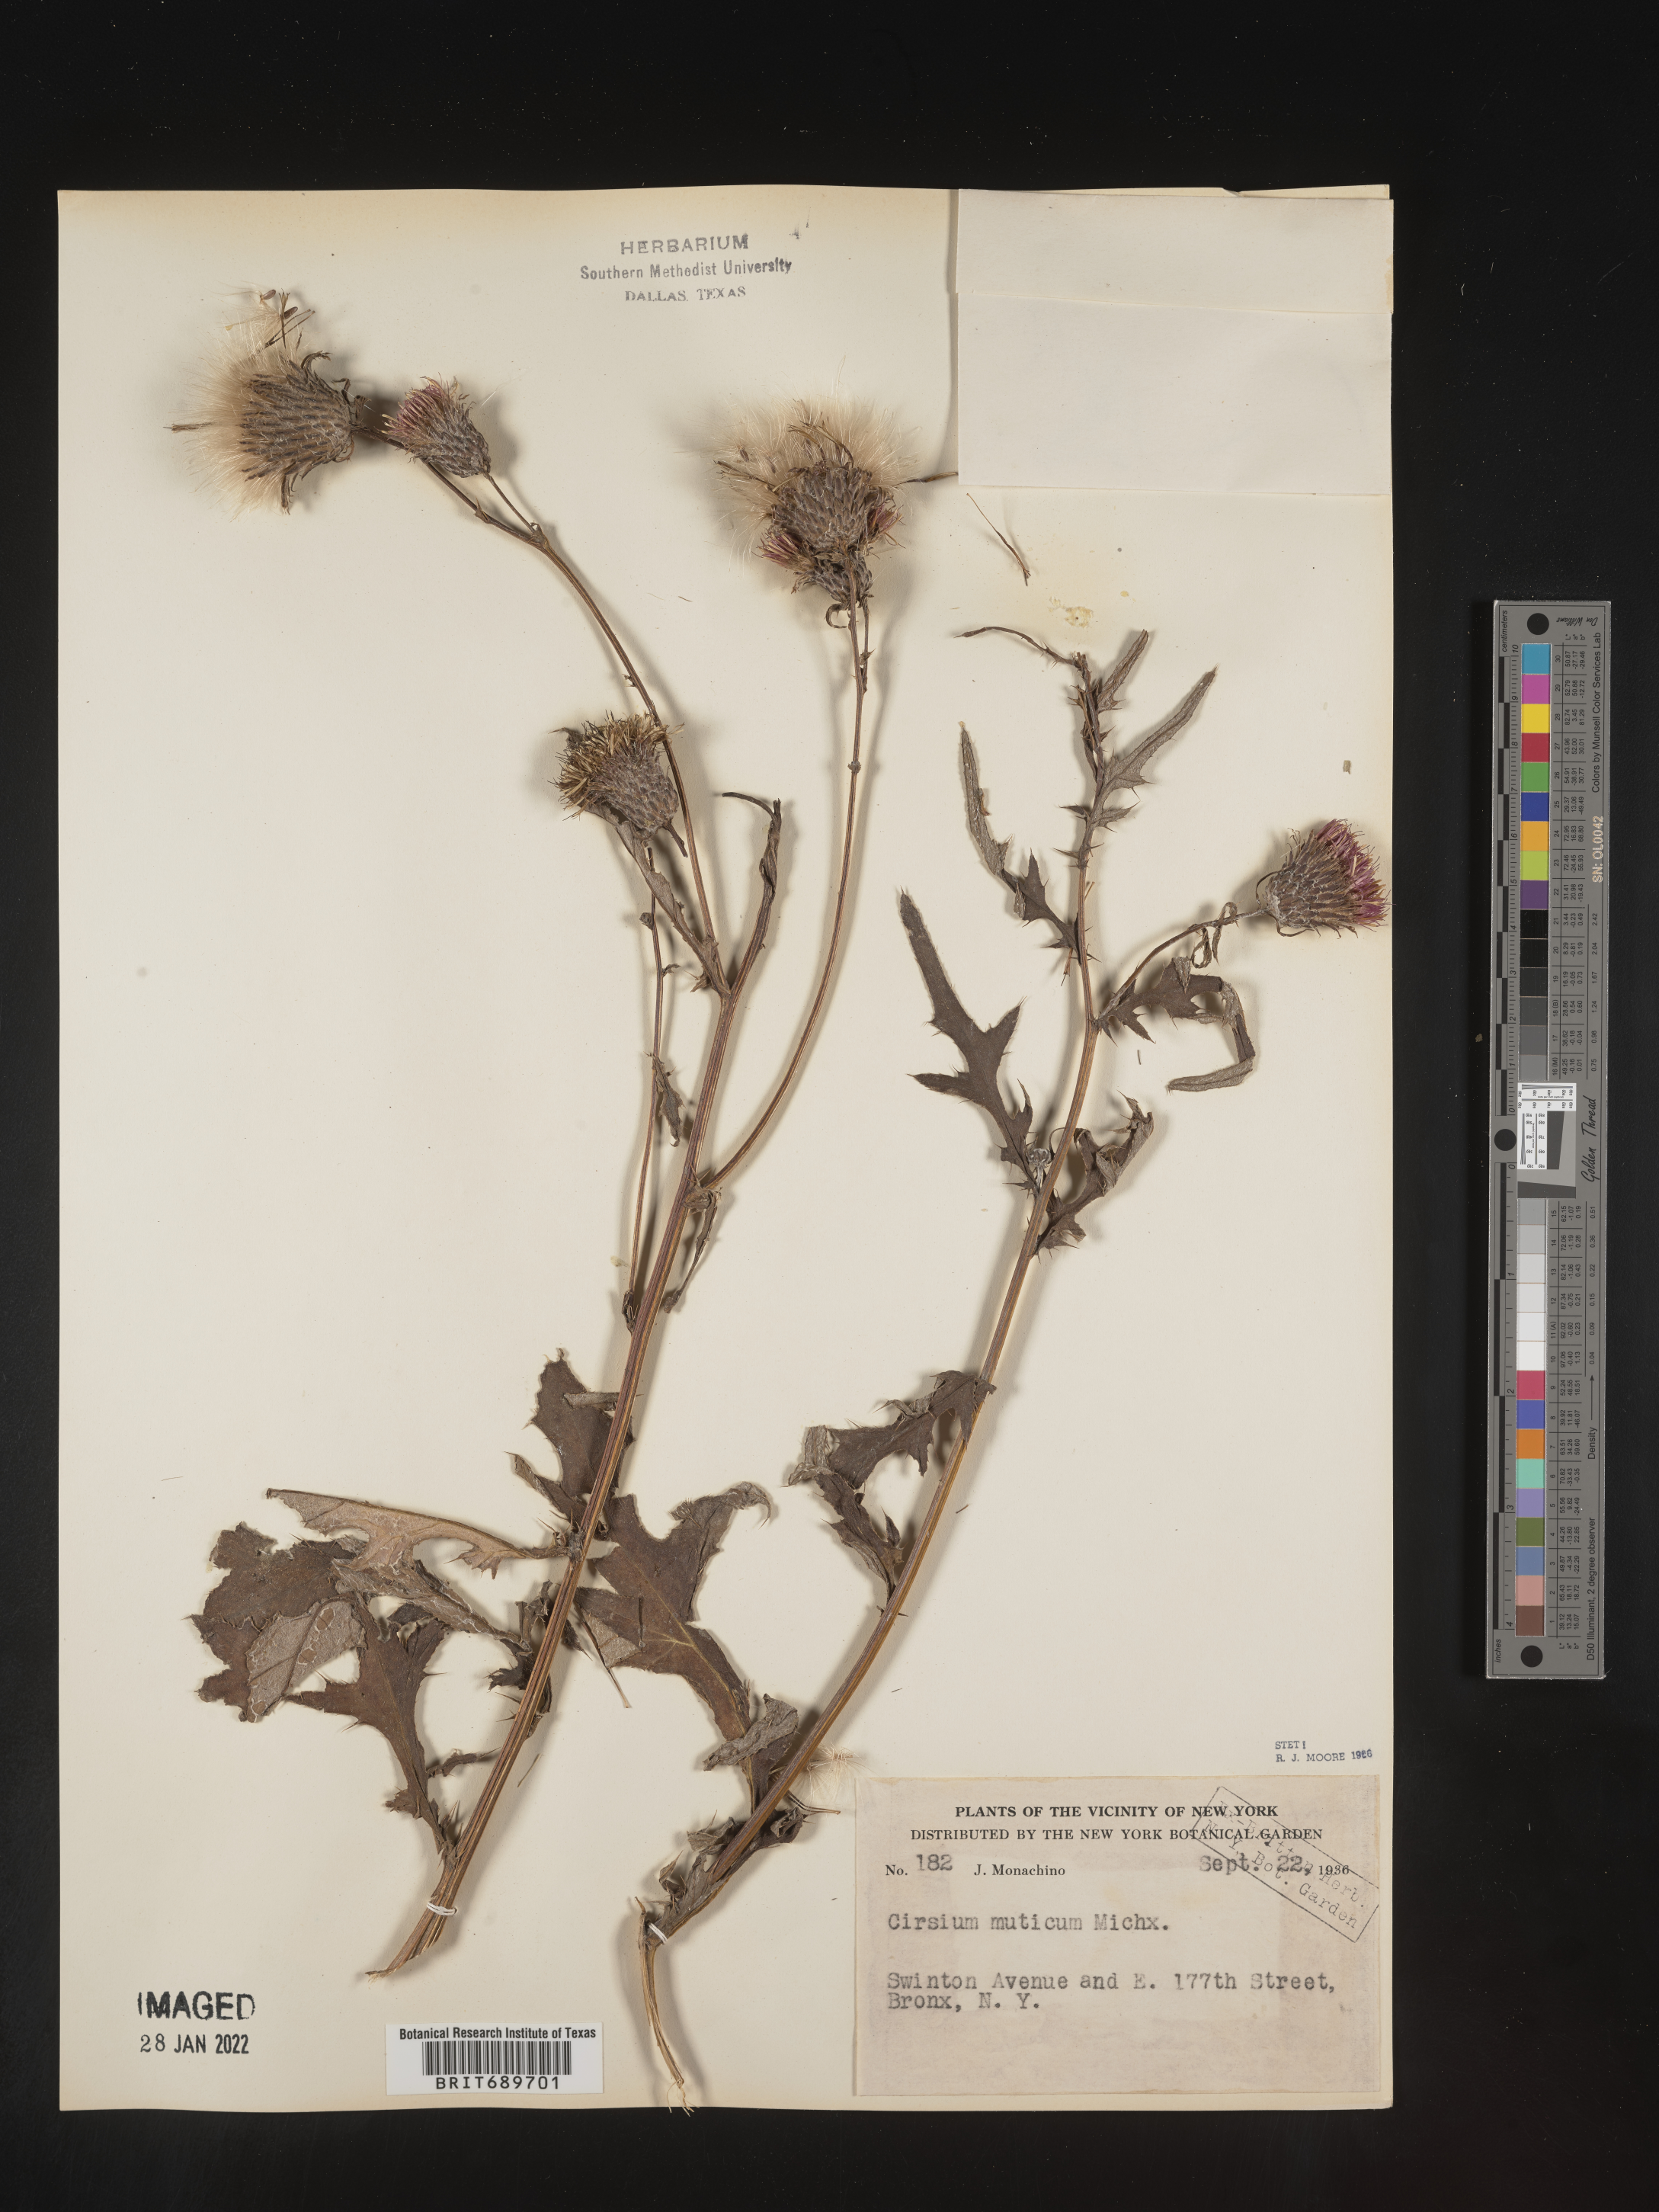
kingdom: Plantae
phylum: Tracheophyta
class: Magnoliopsida
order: Asterales
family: Asteraceae
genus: Cirsium
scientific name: Cirsium muticum
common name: Dunce-nettle
